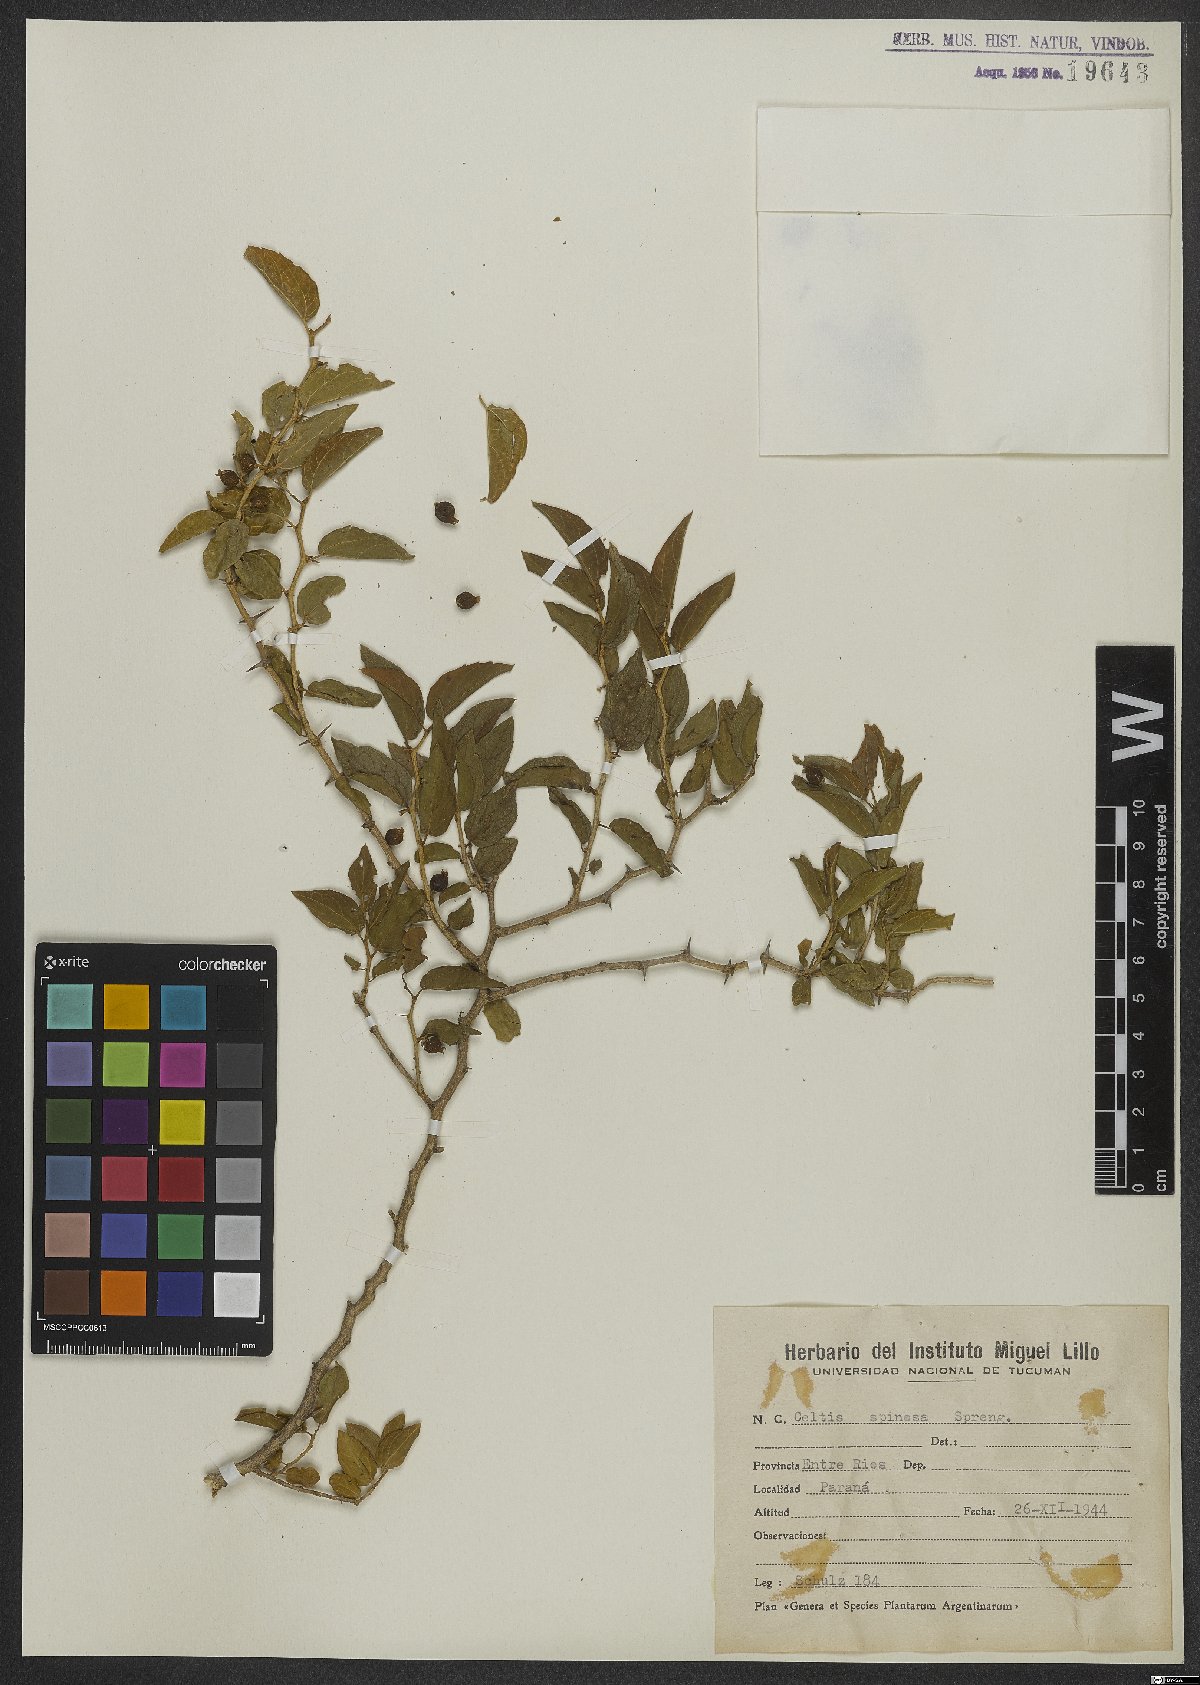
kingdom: Plantae
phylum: Tracheophyta
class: Magnoliopsida
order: Rosales
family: Cannabaceae
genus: Celtis
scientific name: Celtis spinosa
